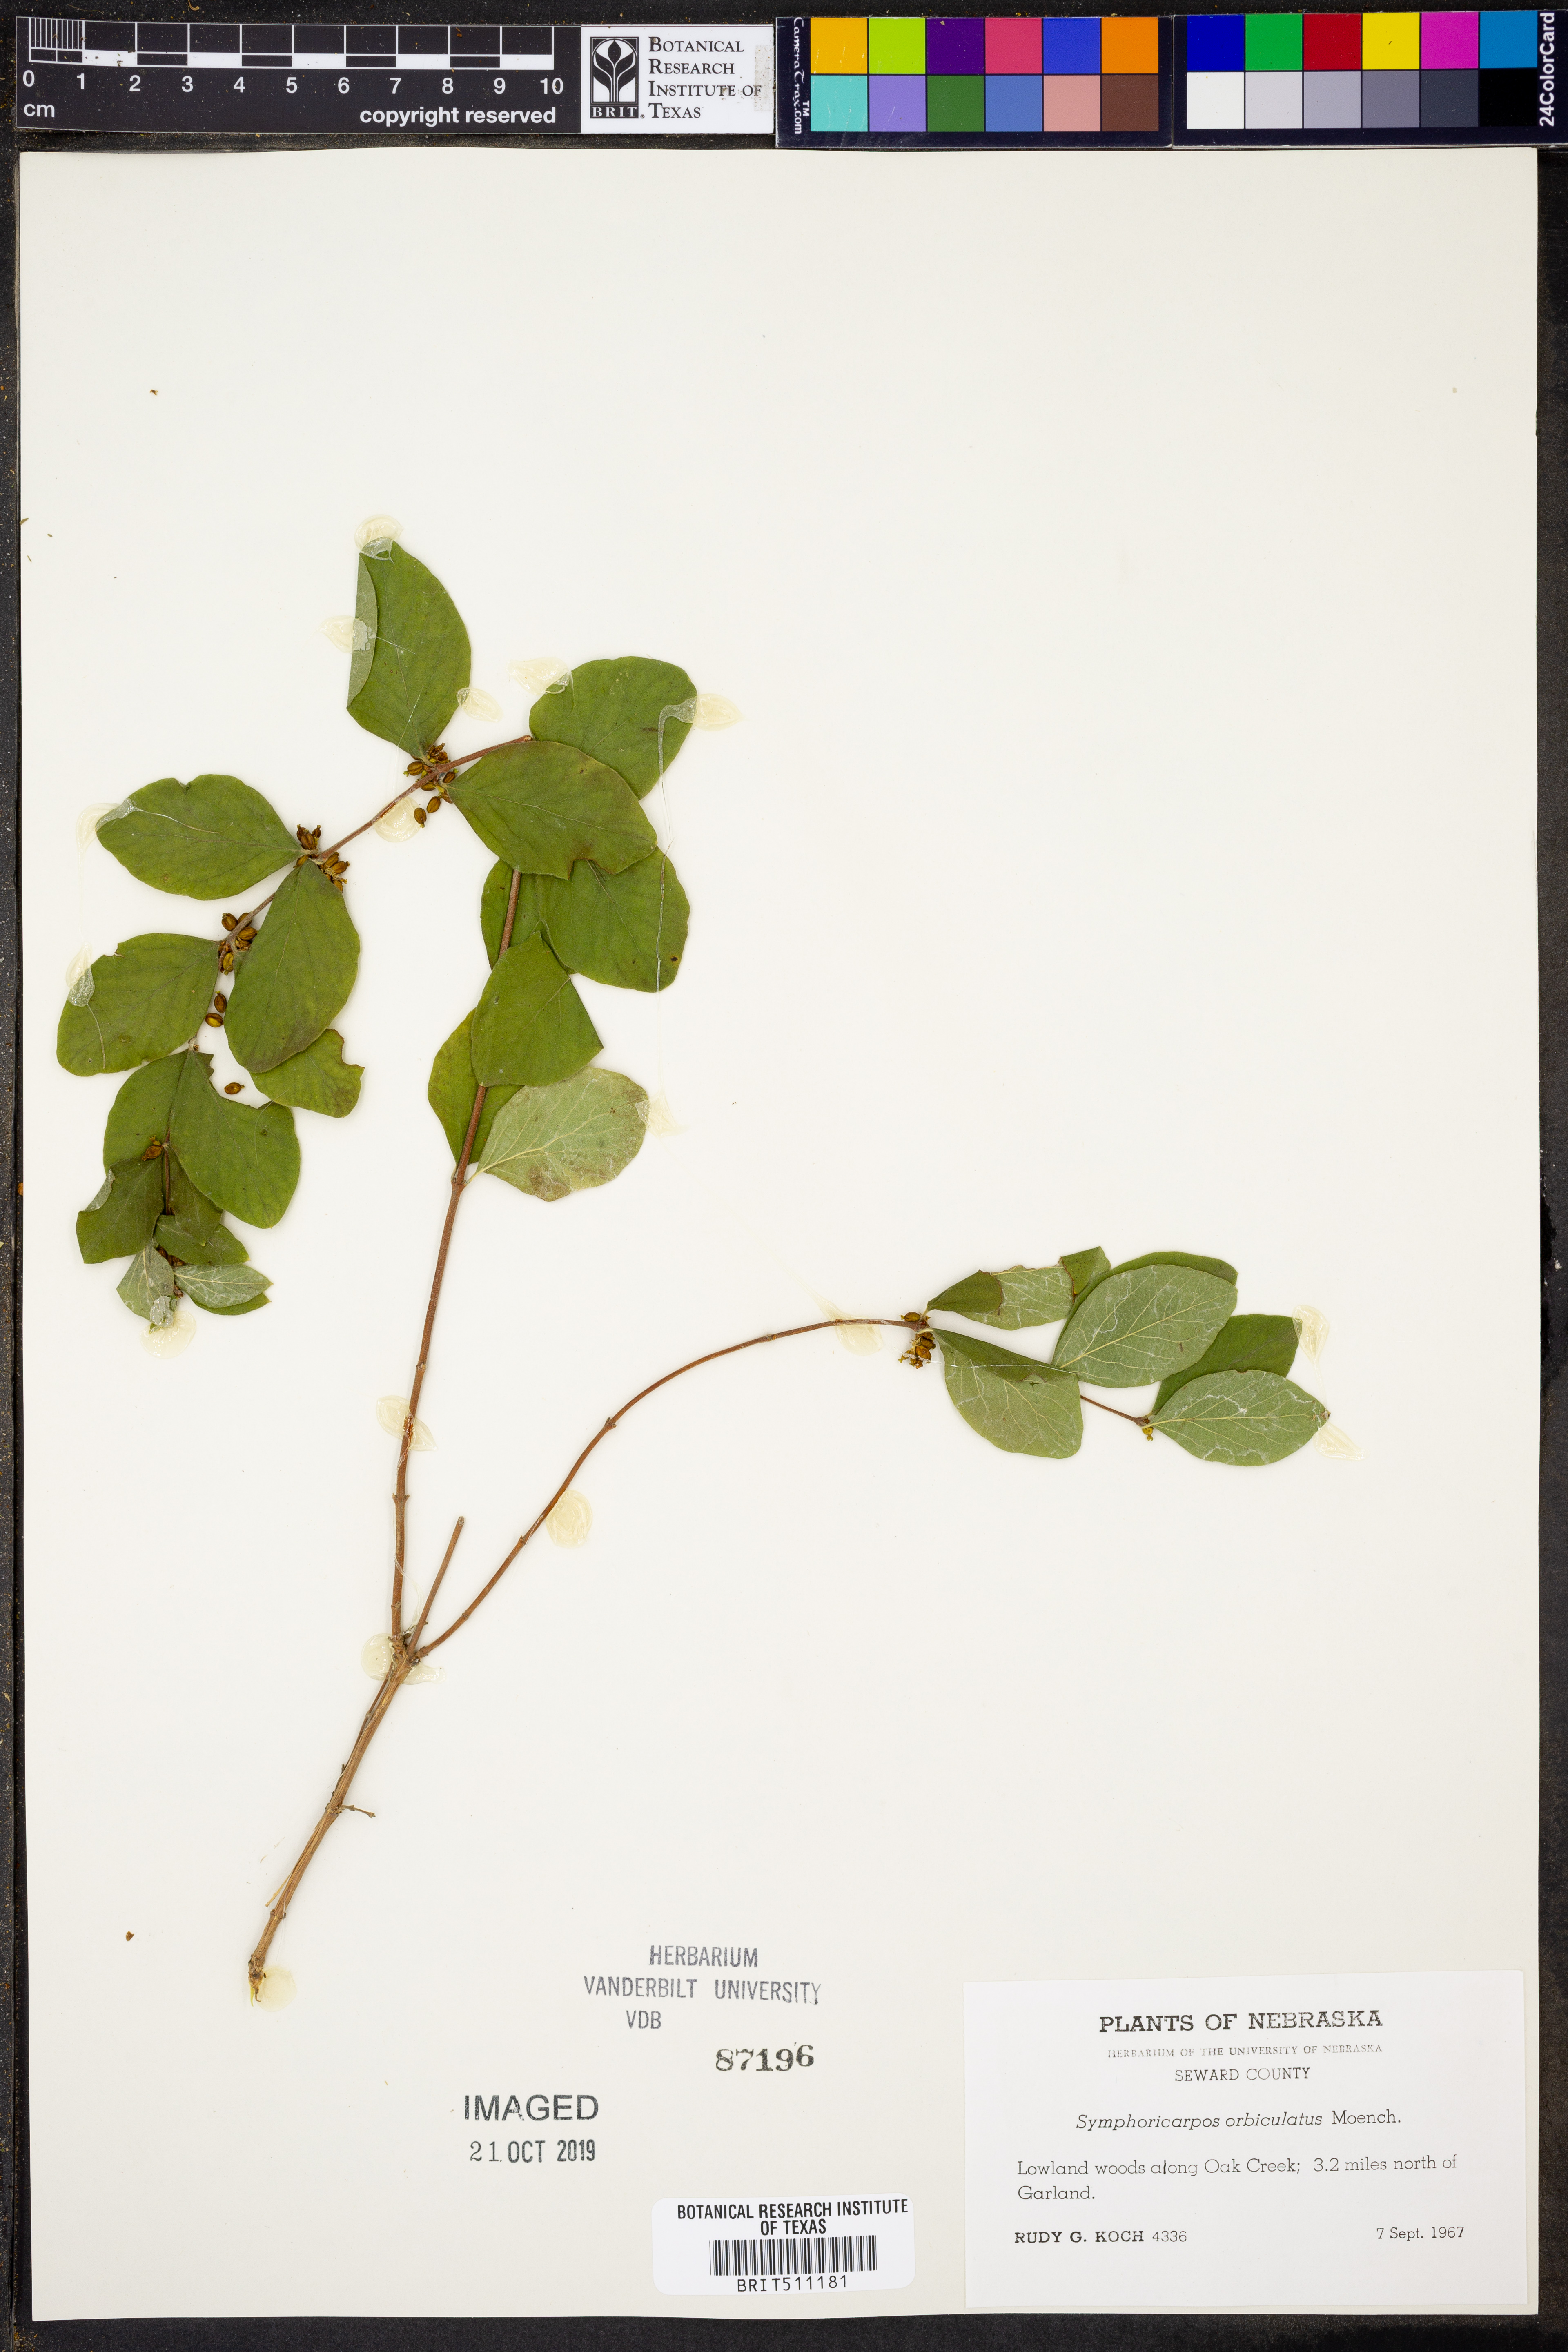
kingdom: Plantae
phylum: Tracheophyta
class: Magnoliopsida
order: Dipsacales
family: Caprifoliaceae
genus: Symphoricarpos
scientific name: Symphoricarpos orbiculatus
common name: Coralberry
